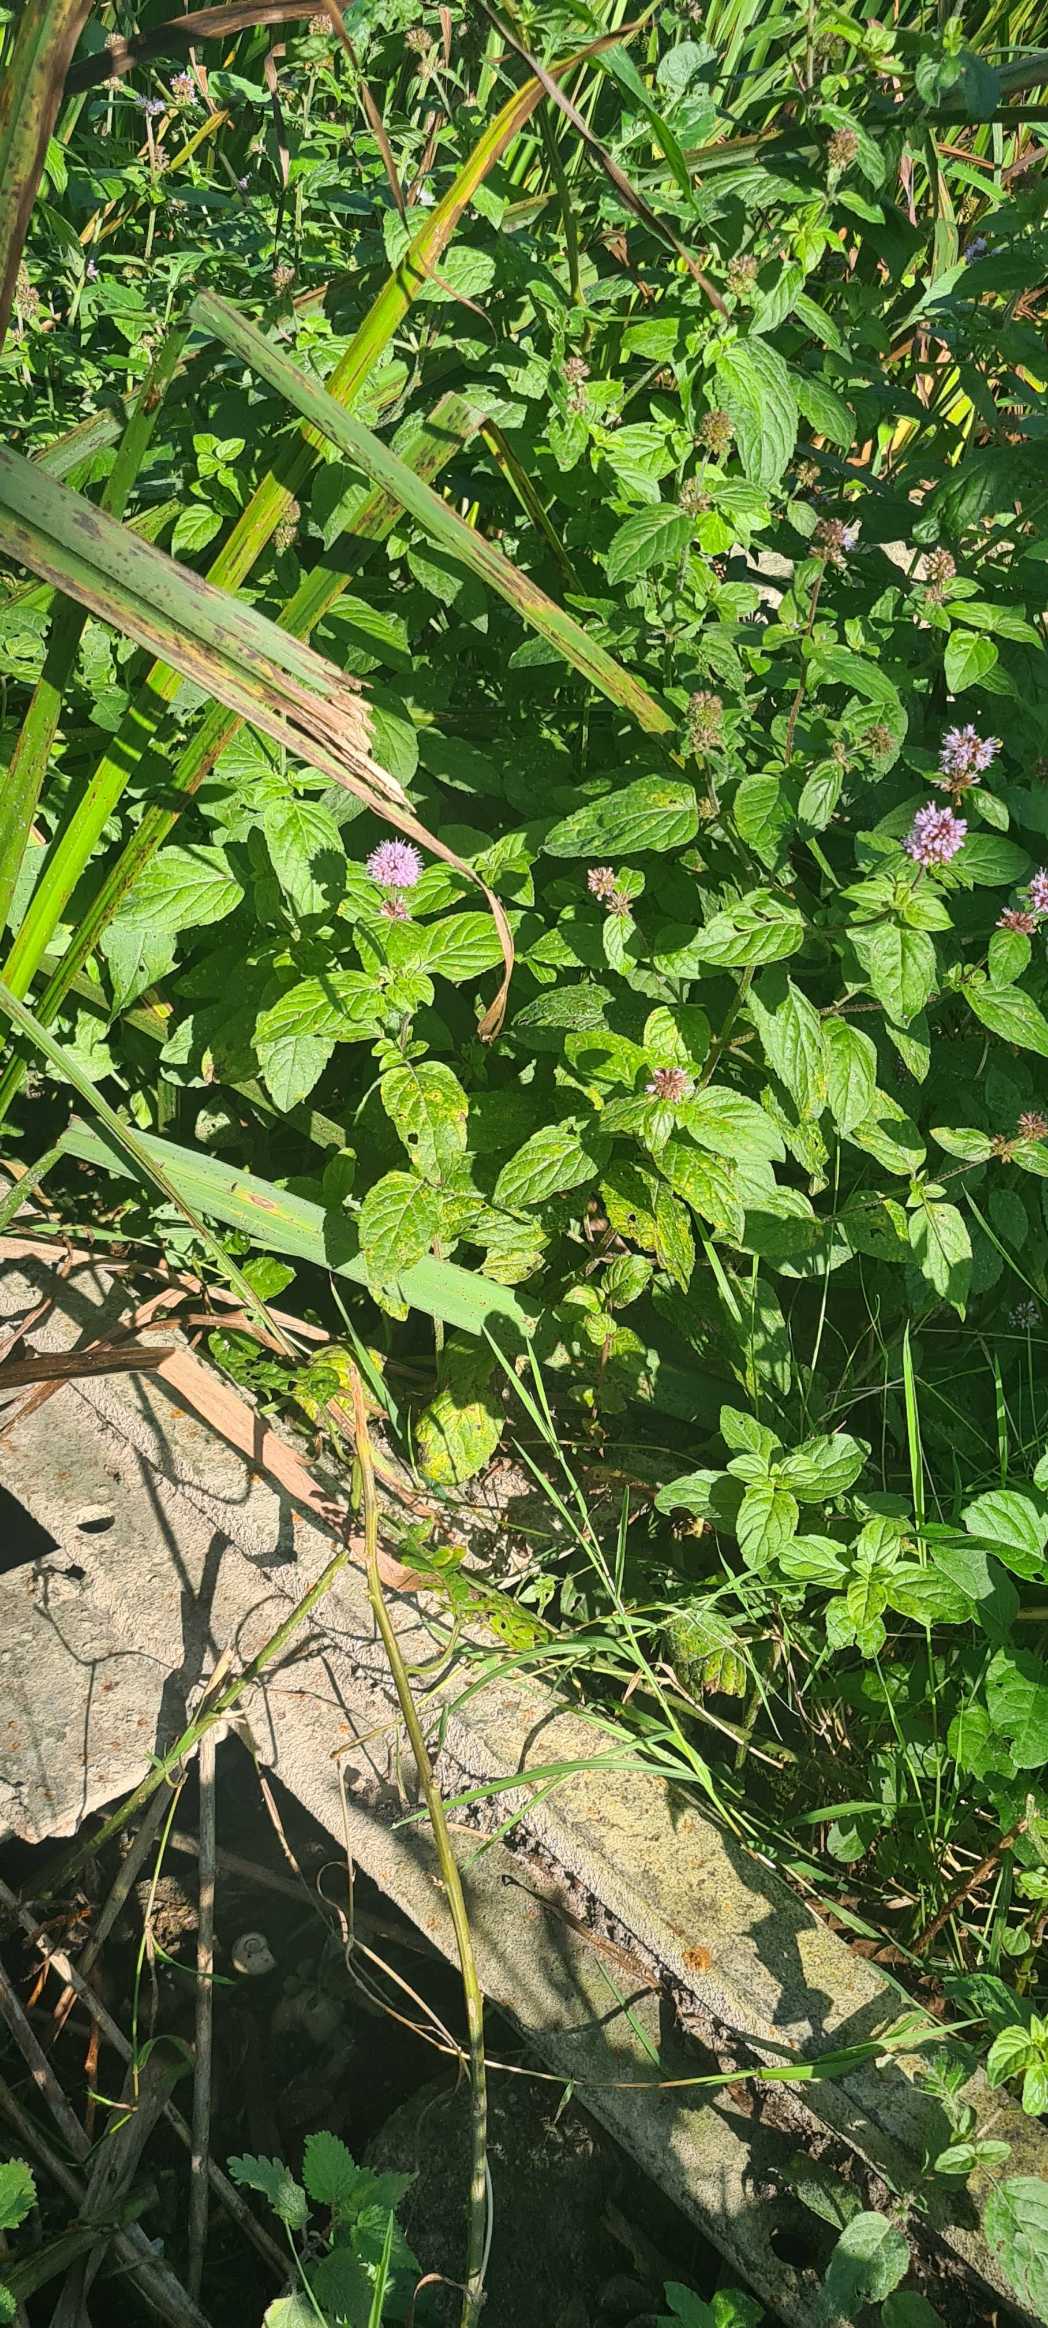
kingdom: Plantae
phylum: Tracheophyta
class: Magnoliopsida
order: Lamiales
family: Lamiaceae
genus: Mentha
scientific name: Mentha aquatica
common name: Vand-mynte
